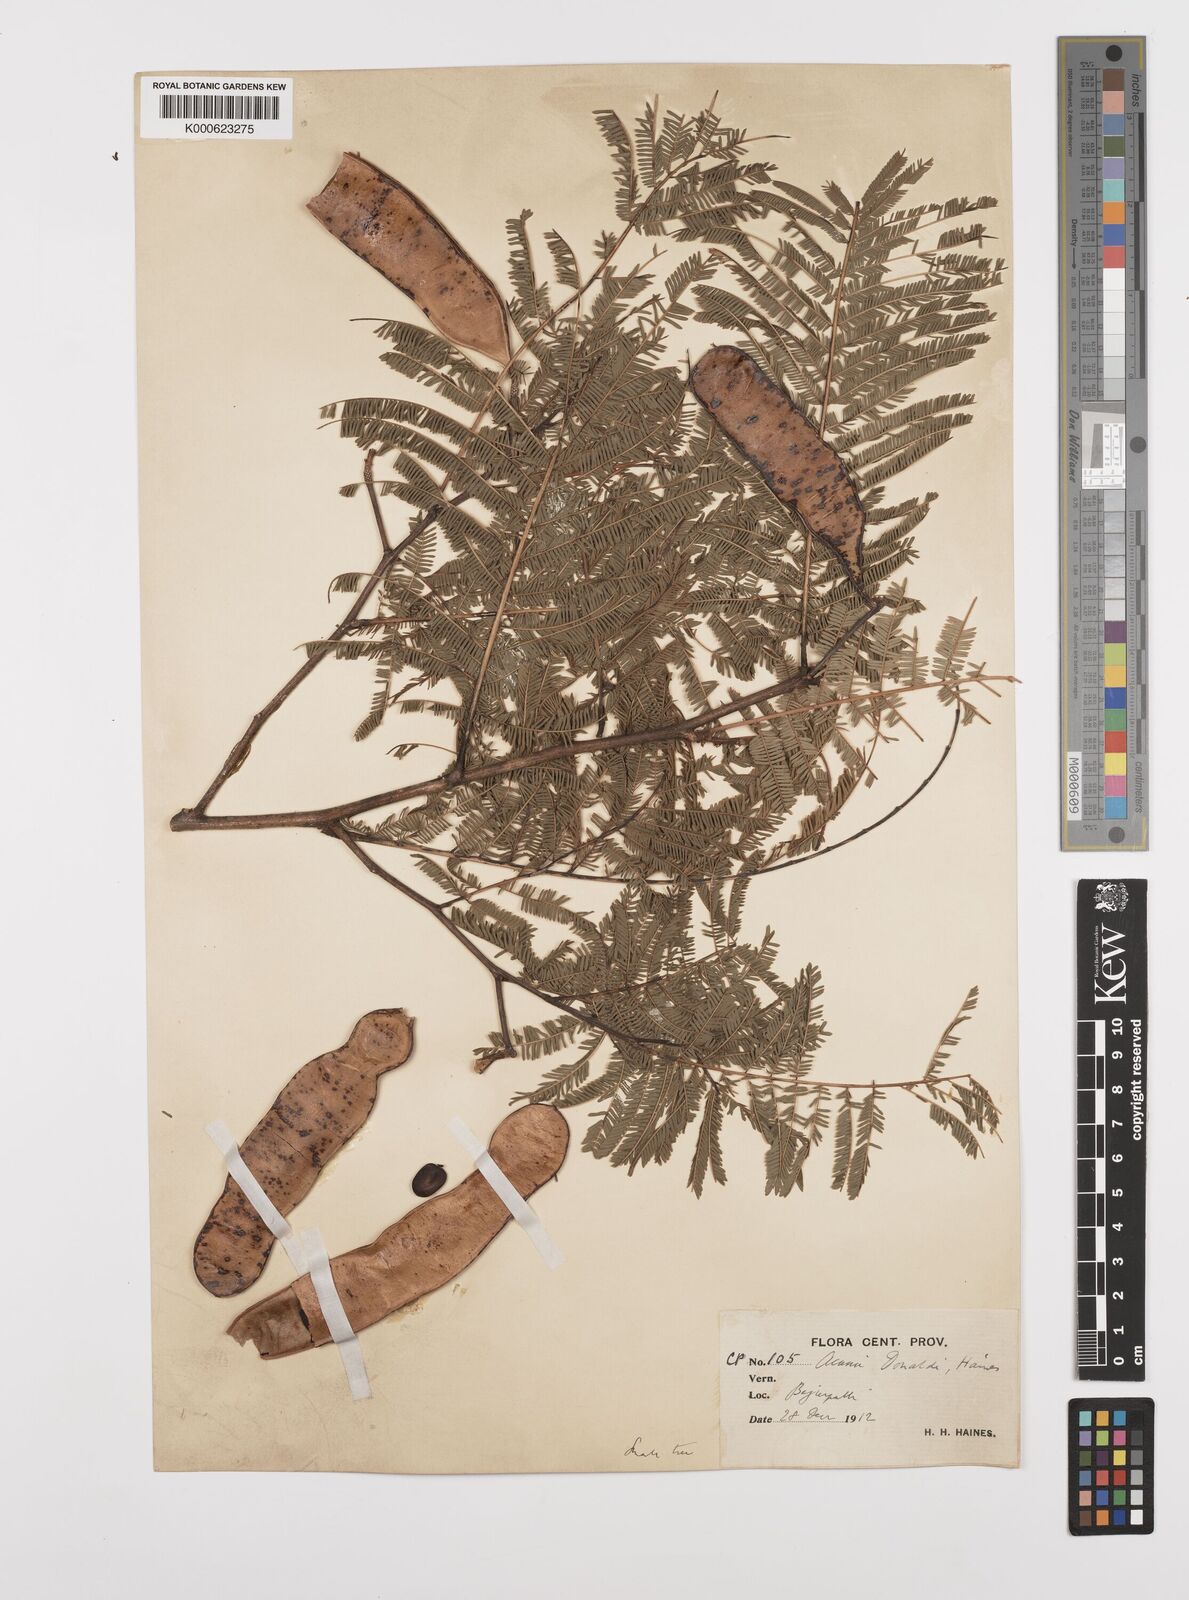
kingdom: Plantae
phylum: Tracheophyta
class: Magnoliopsida
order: Fabales
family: Fabaceae
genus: Senegalia
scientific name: Senegalia donaldi
